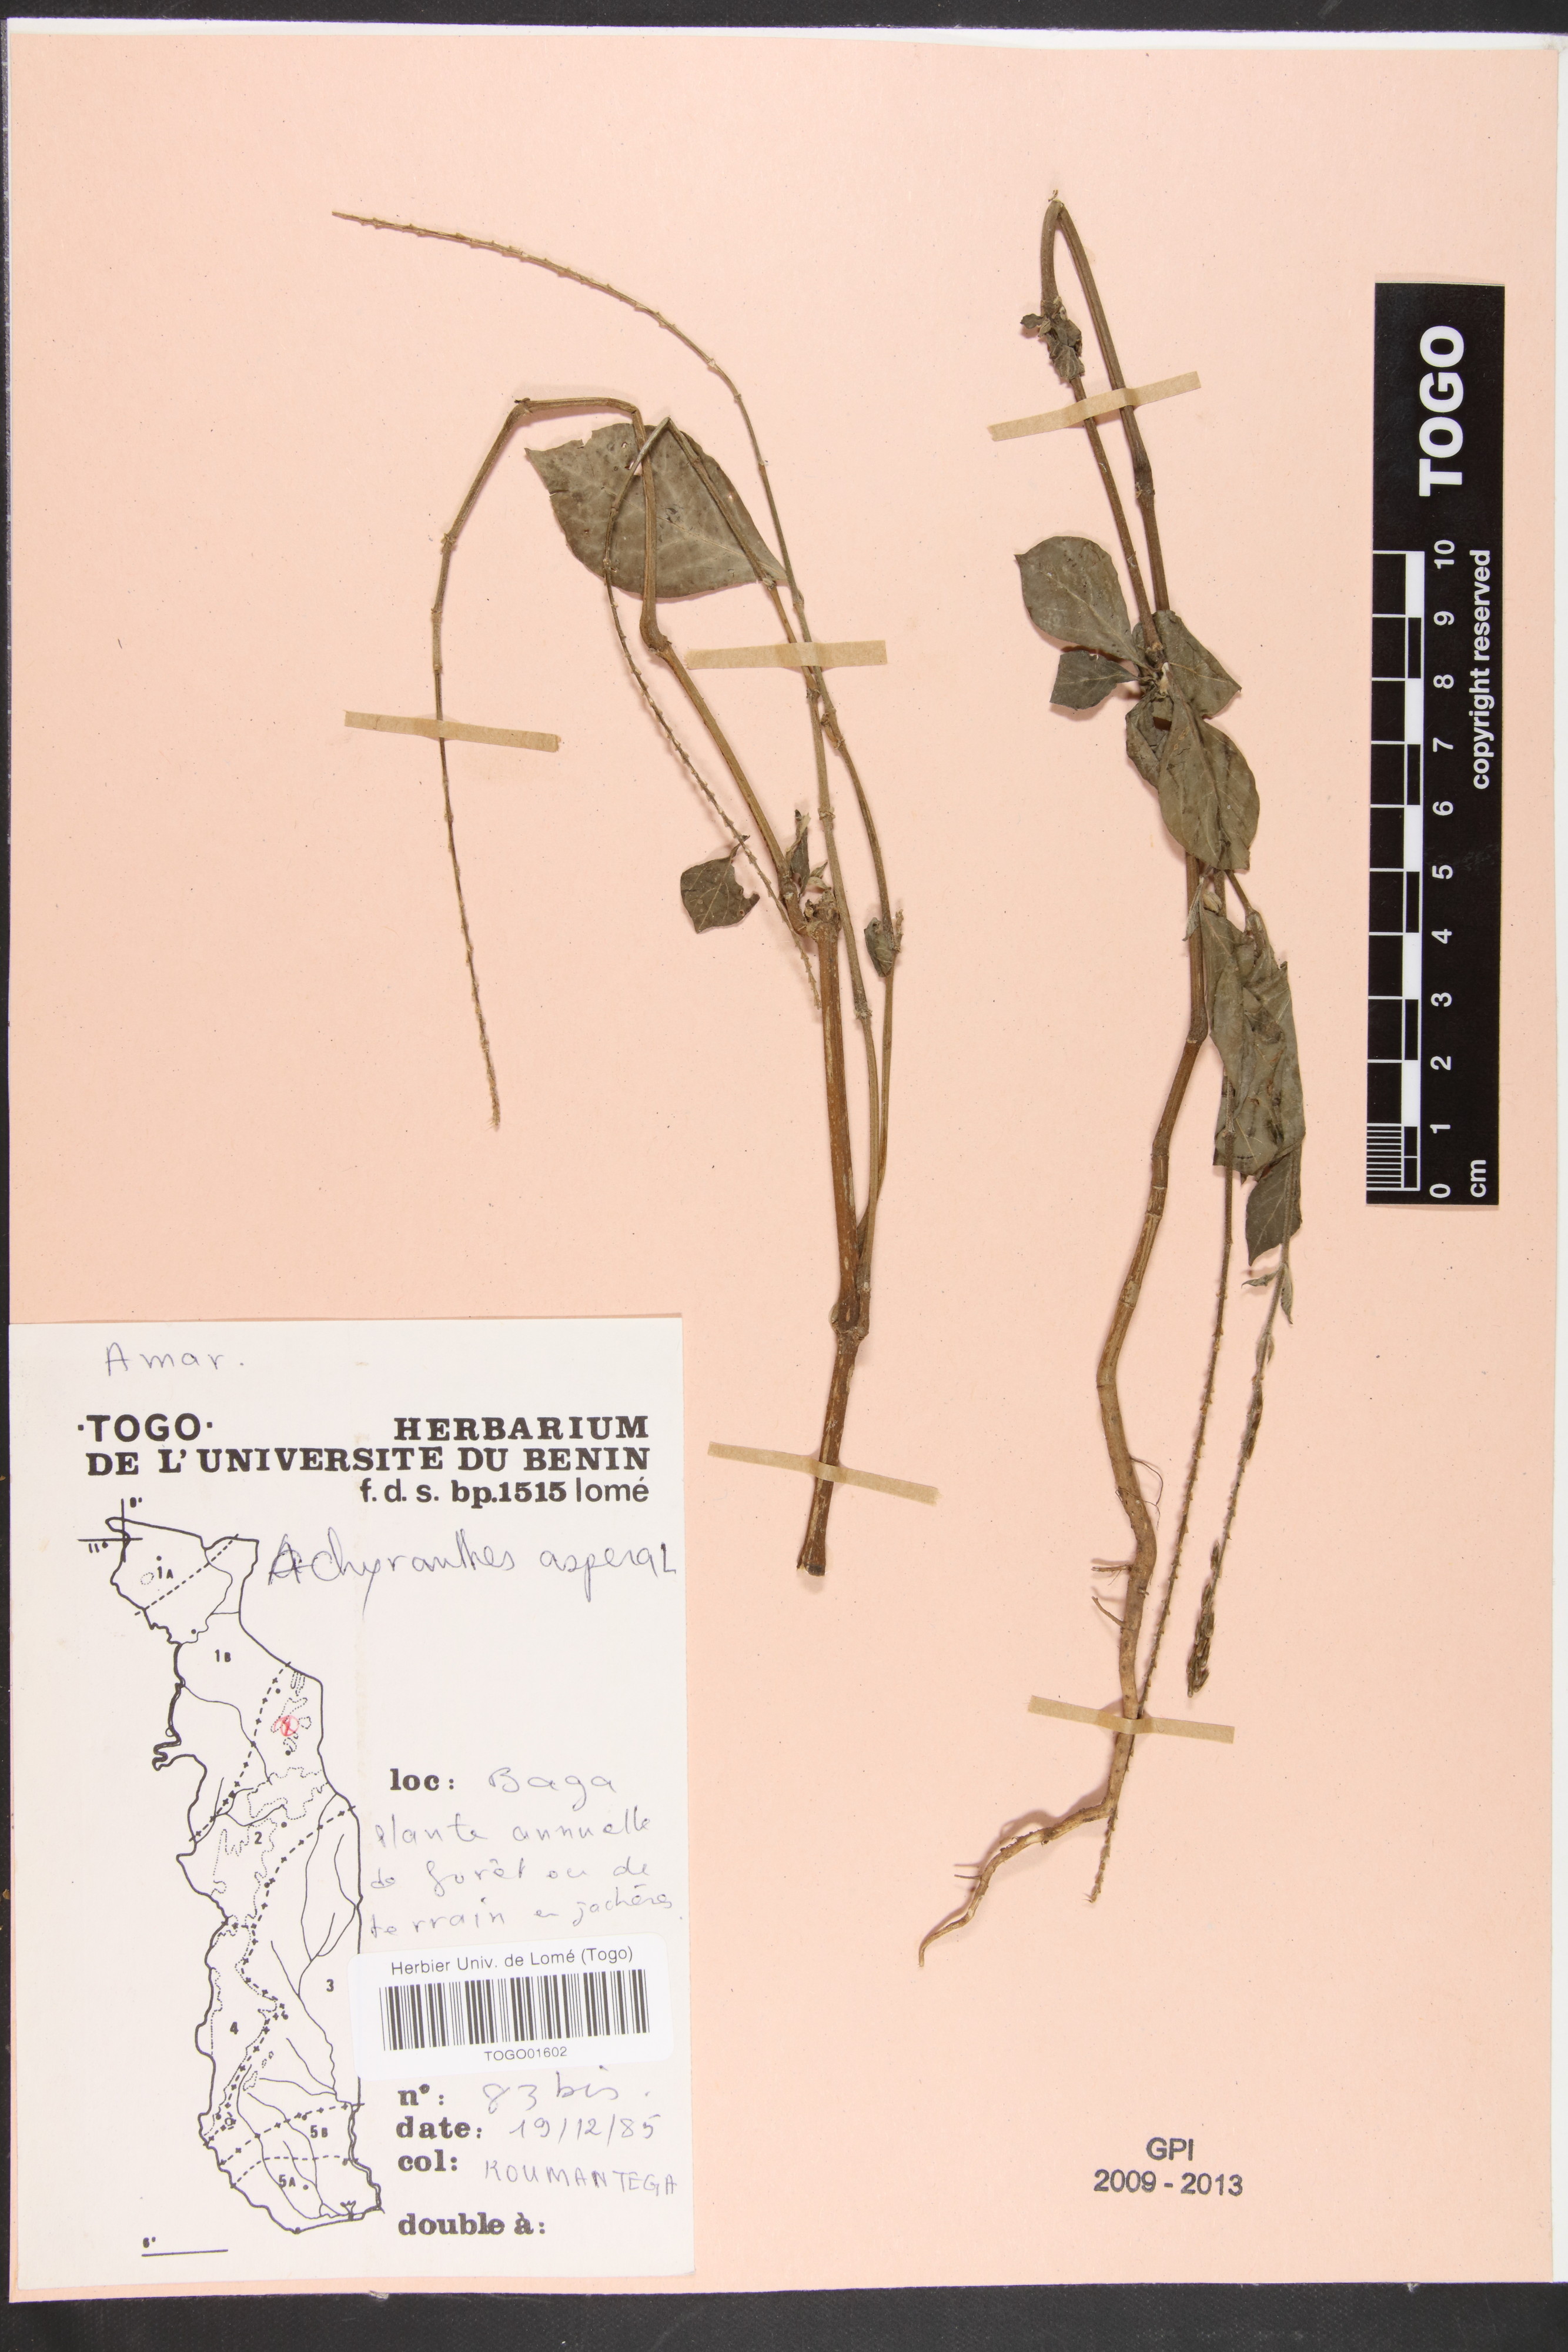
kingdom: Plantae
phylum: Tracheophyta
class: Magnoliopsida
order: Caryophyllales
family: Amaranthaceae
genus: Achyranthes
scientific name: Achyranthes aspera
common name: Devil's horsewhip
